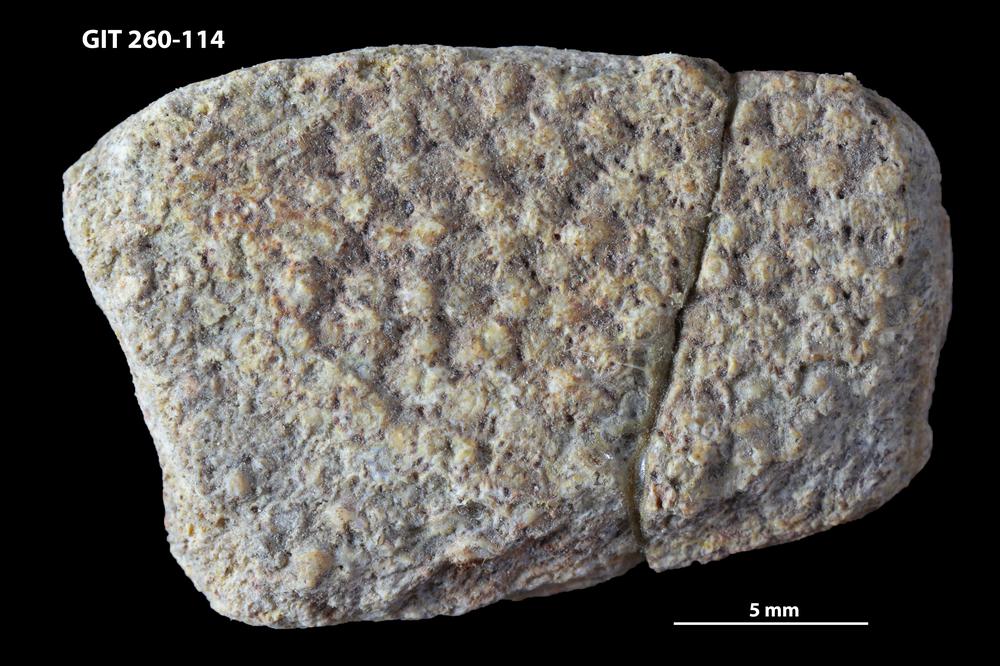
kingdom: Animalia
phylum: Chordata
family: Homostiidae
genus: Homostius
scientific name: Homostius
